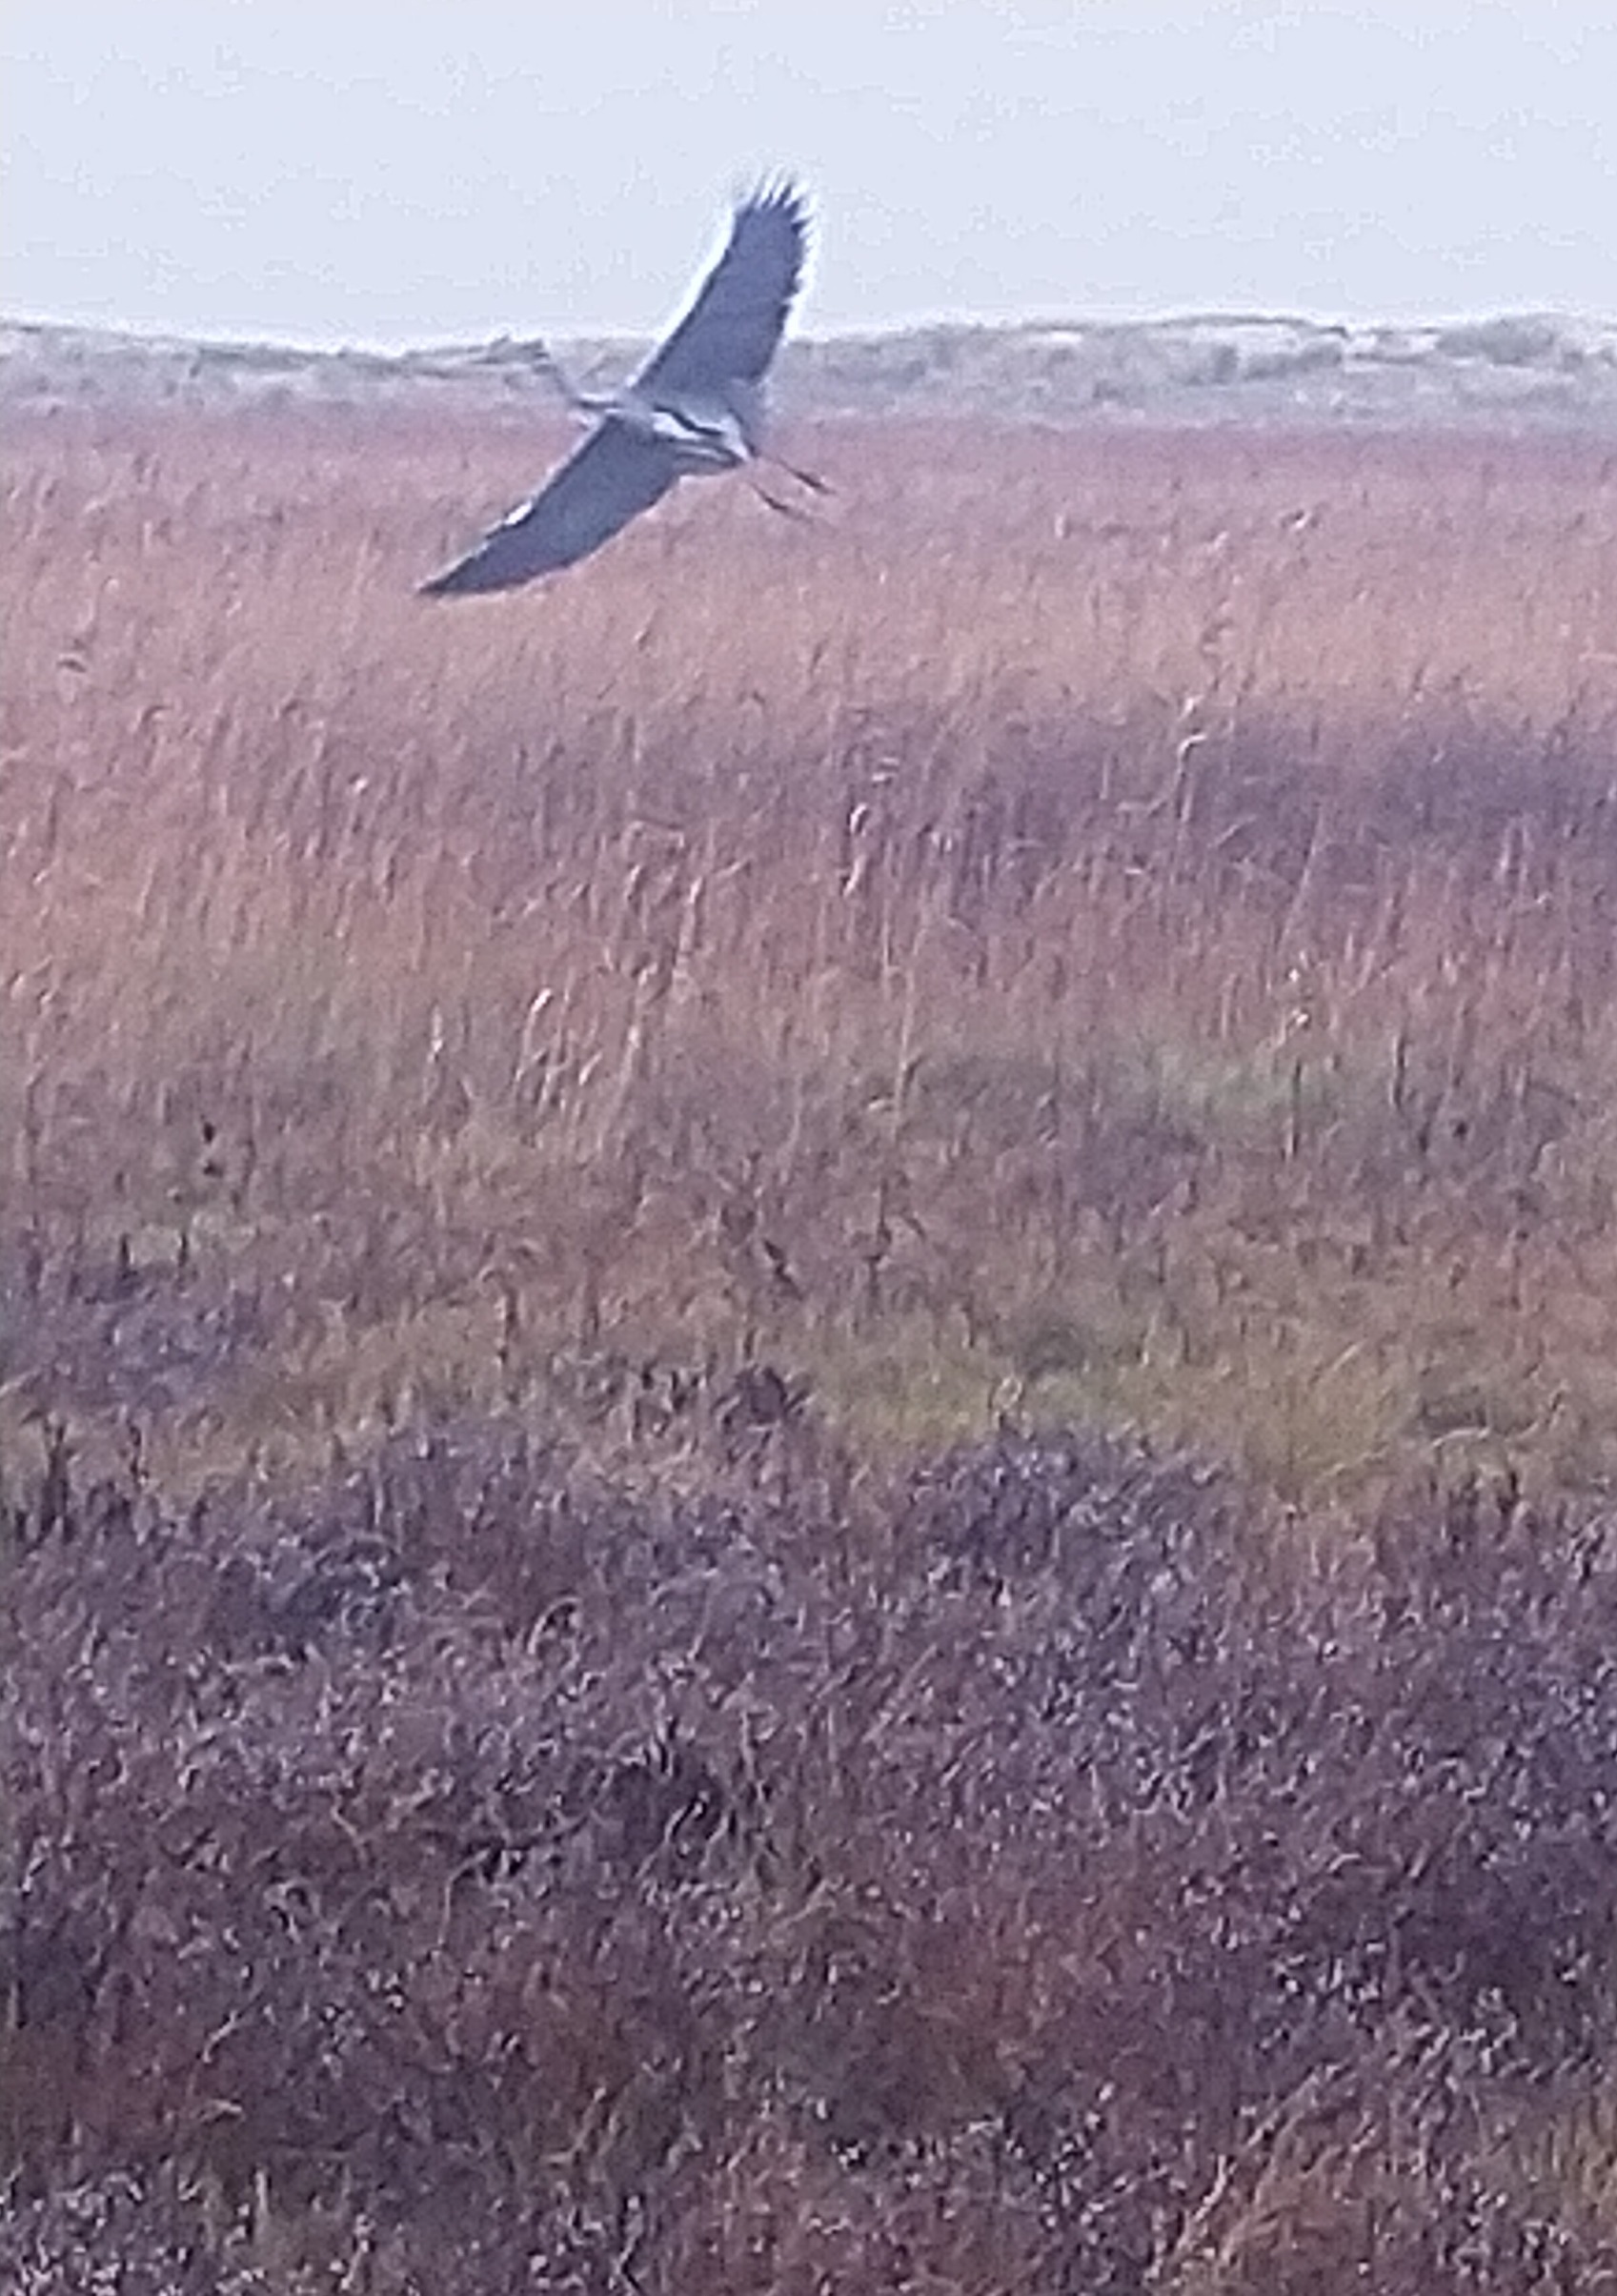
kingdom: Animalia
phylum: Chordata
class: Aves
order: Pelecaniformes
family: Ardeidae
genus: Ardea
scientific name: Ardea cinerea
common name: Fiskehejre
